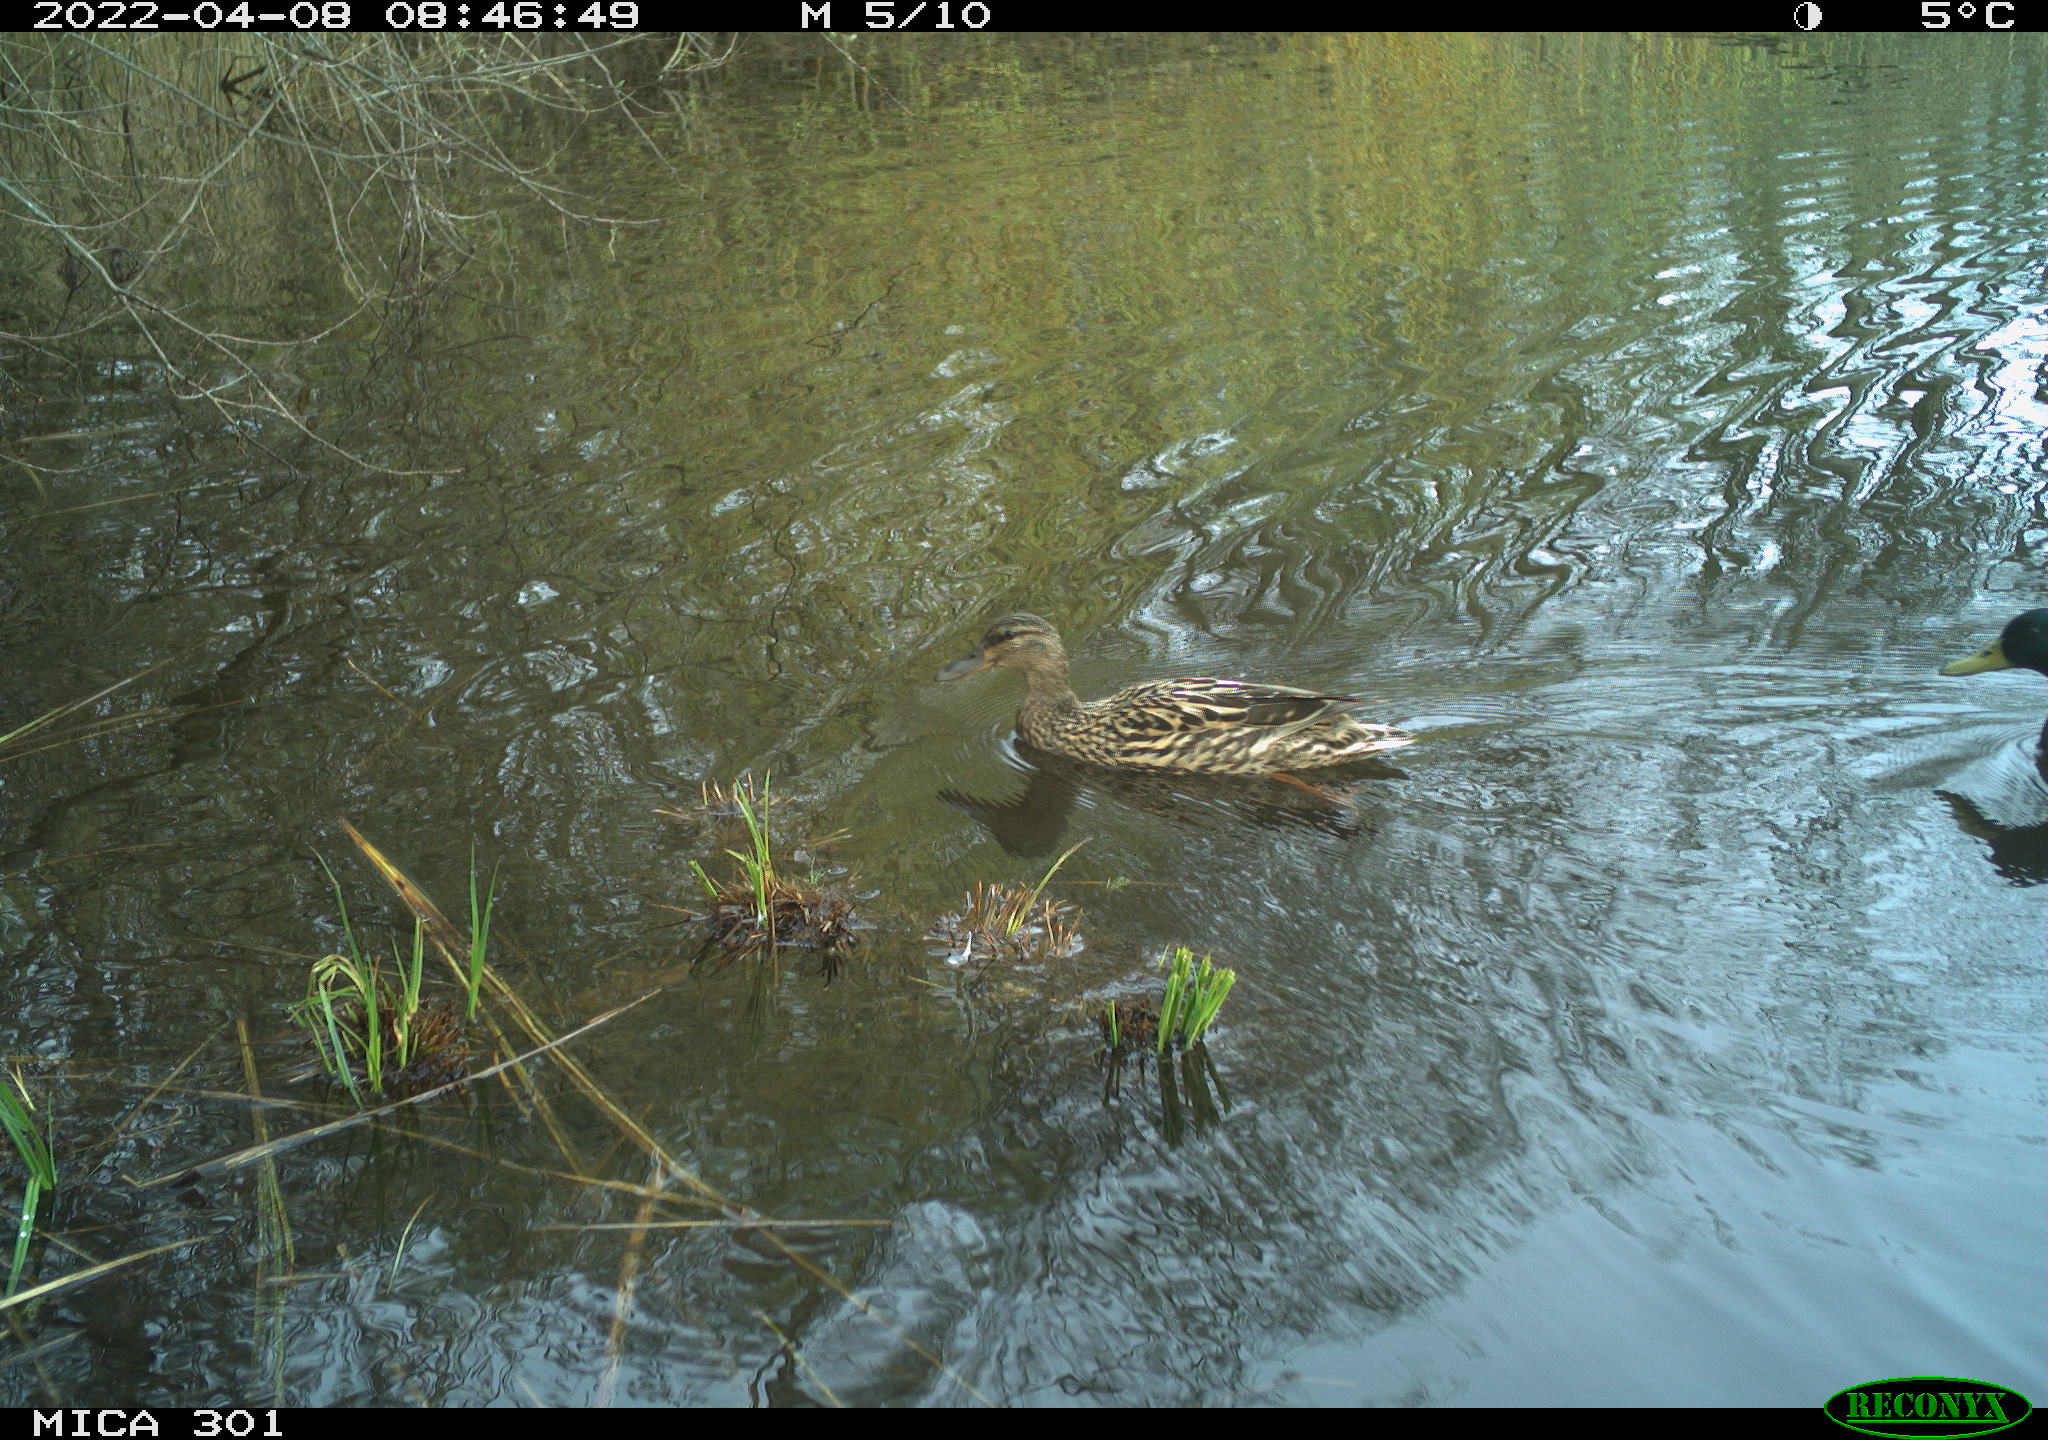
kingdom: Animalia
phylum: Chordata
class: Aves
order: Gruiformes
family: Rallidae
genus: Fulica
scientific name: Fulica atra
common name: Eurasian coot
